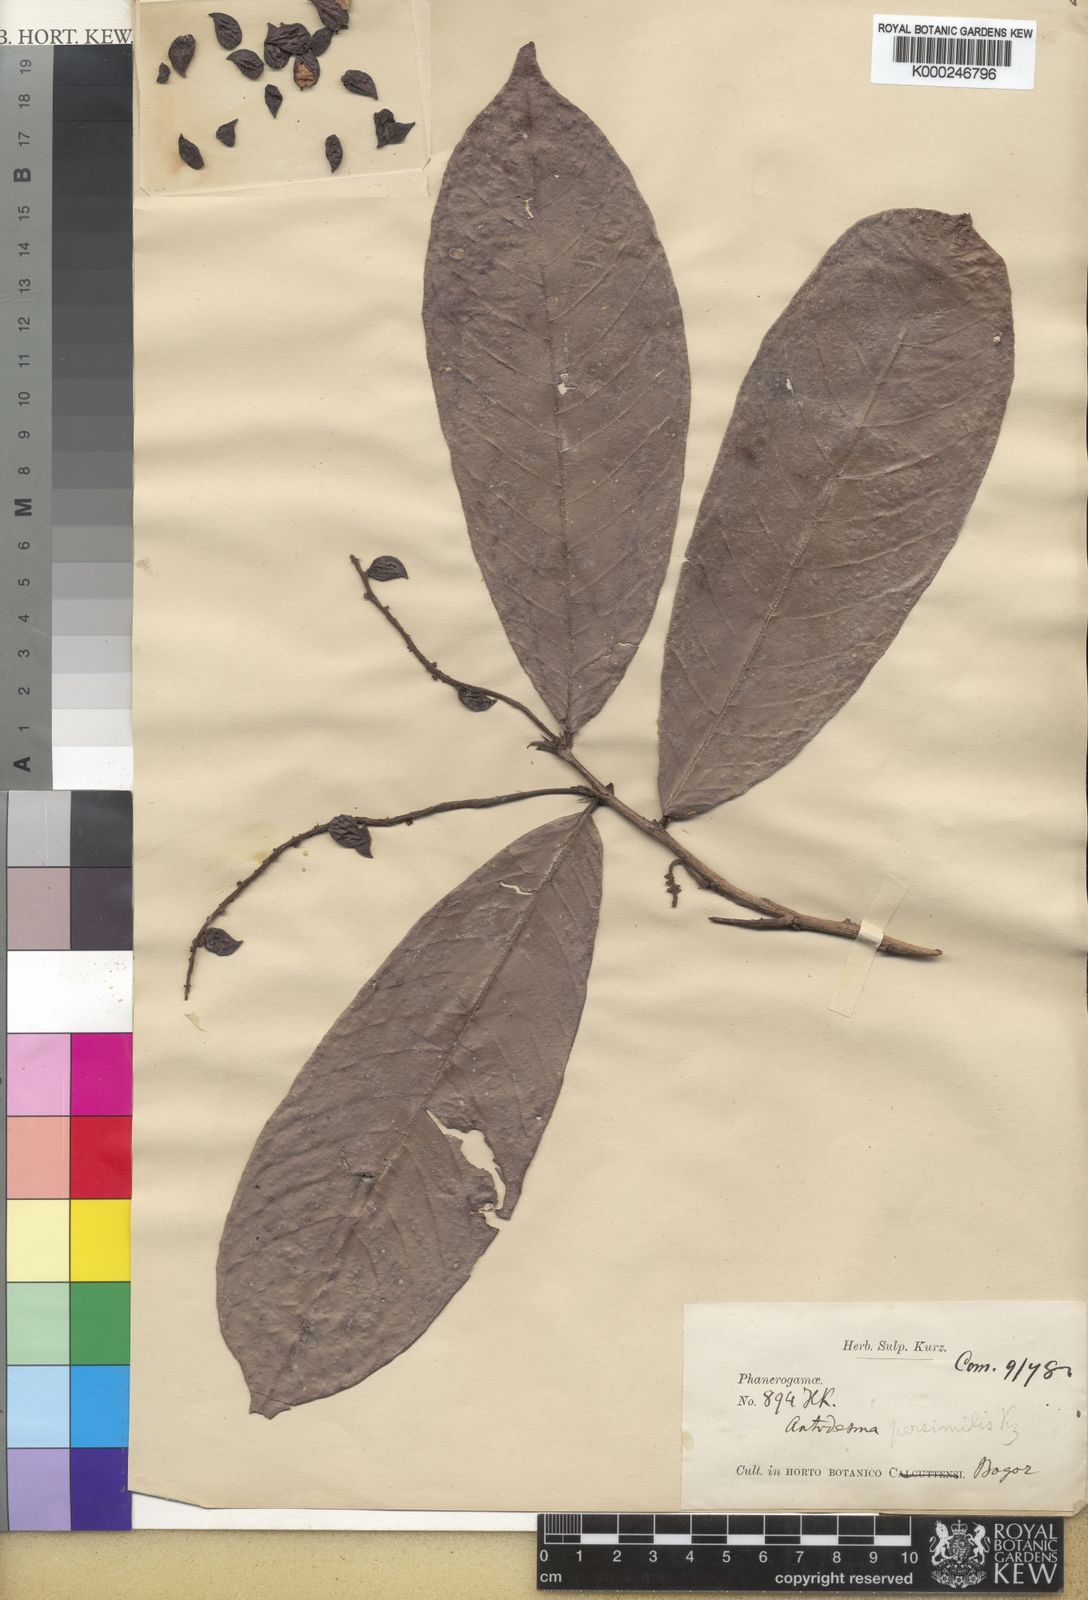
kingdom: Plantae
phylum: Tracheophyta
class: Magnoliopsida
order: Malpighiales
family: Phyllanthaceae
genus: Antidesma
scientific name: Antidesma tomentosum
